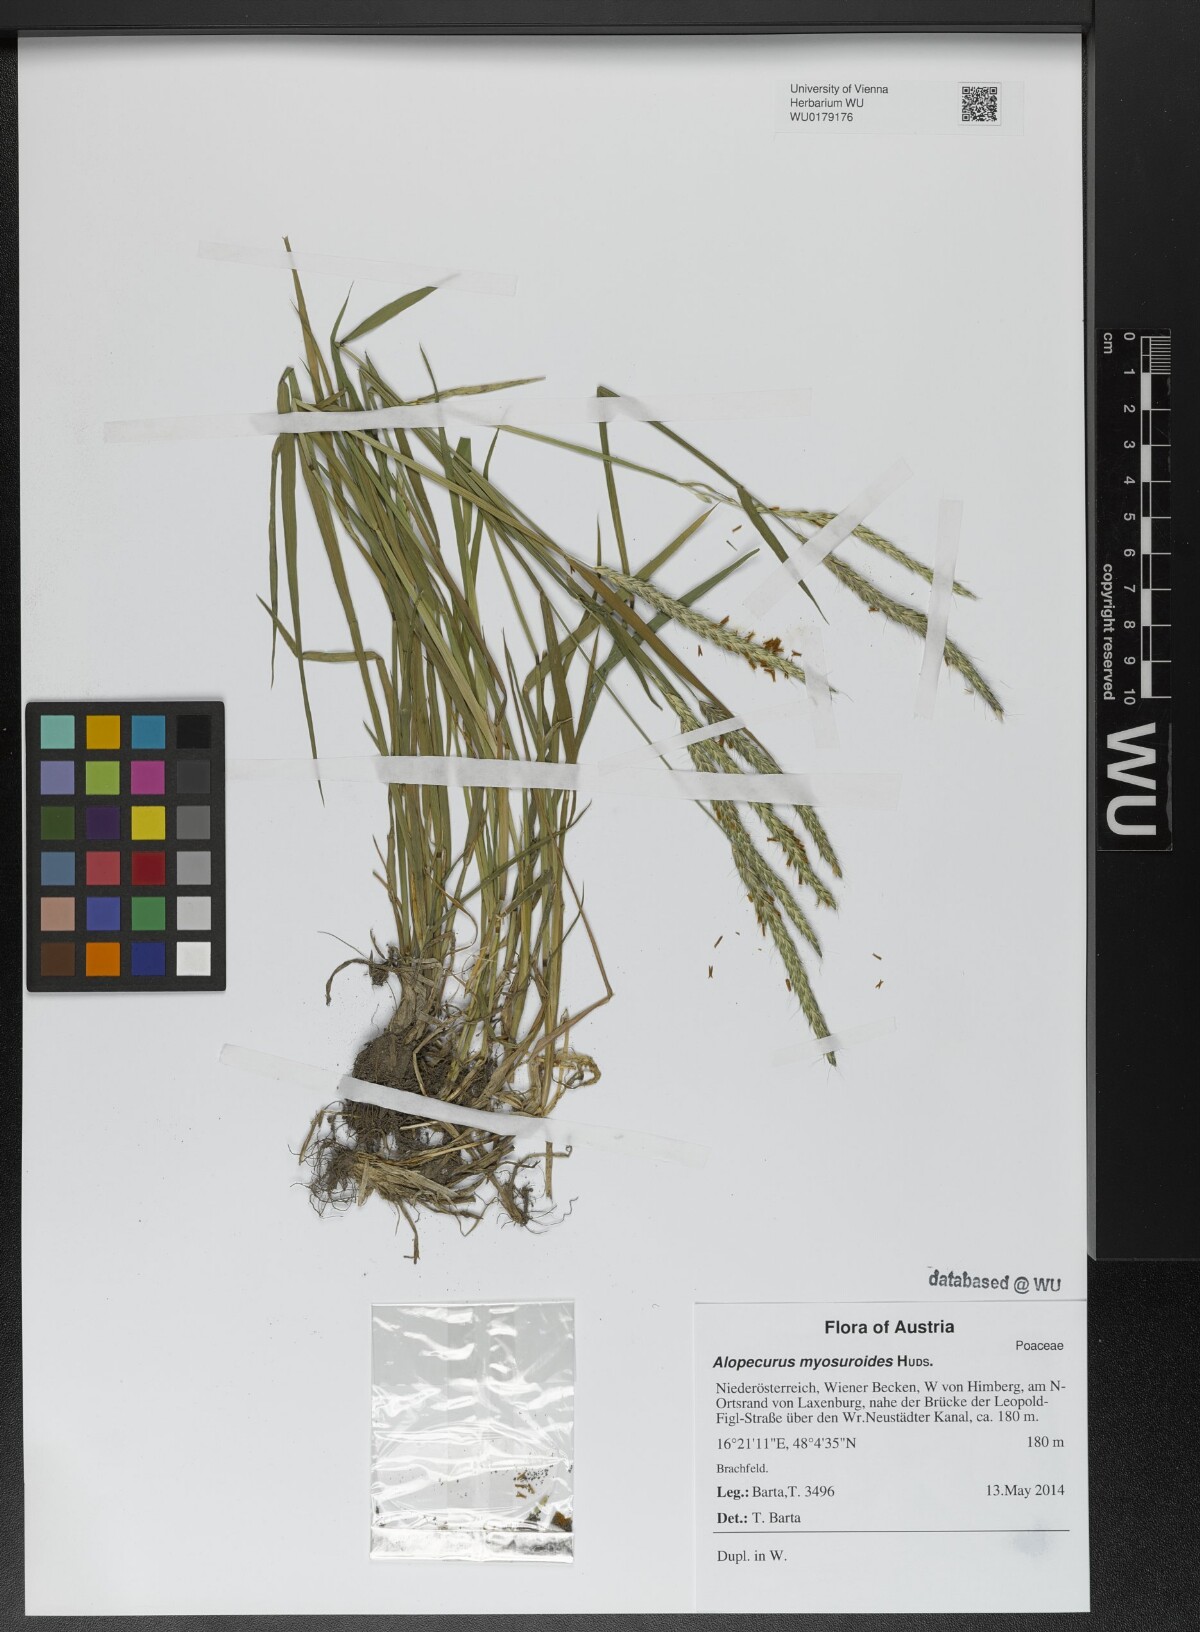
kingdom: Plantae
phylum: Tracheophyta
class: Liliopsida
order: Poales
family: Poaceae
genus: Alopecurus
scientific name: Alopecurus myosuroides
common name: Black-grass
